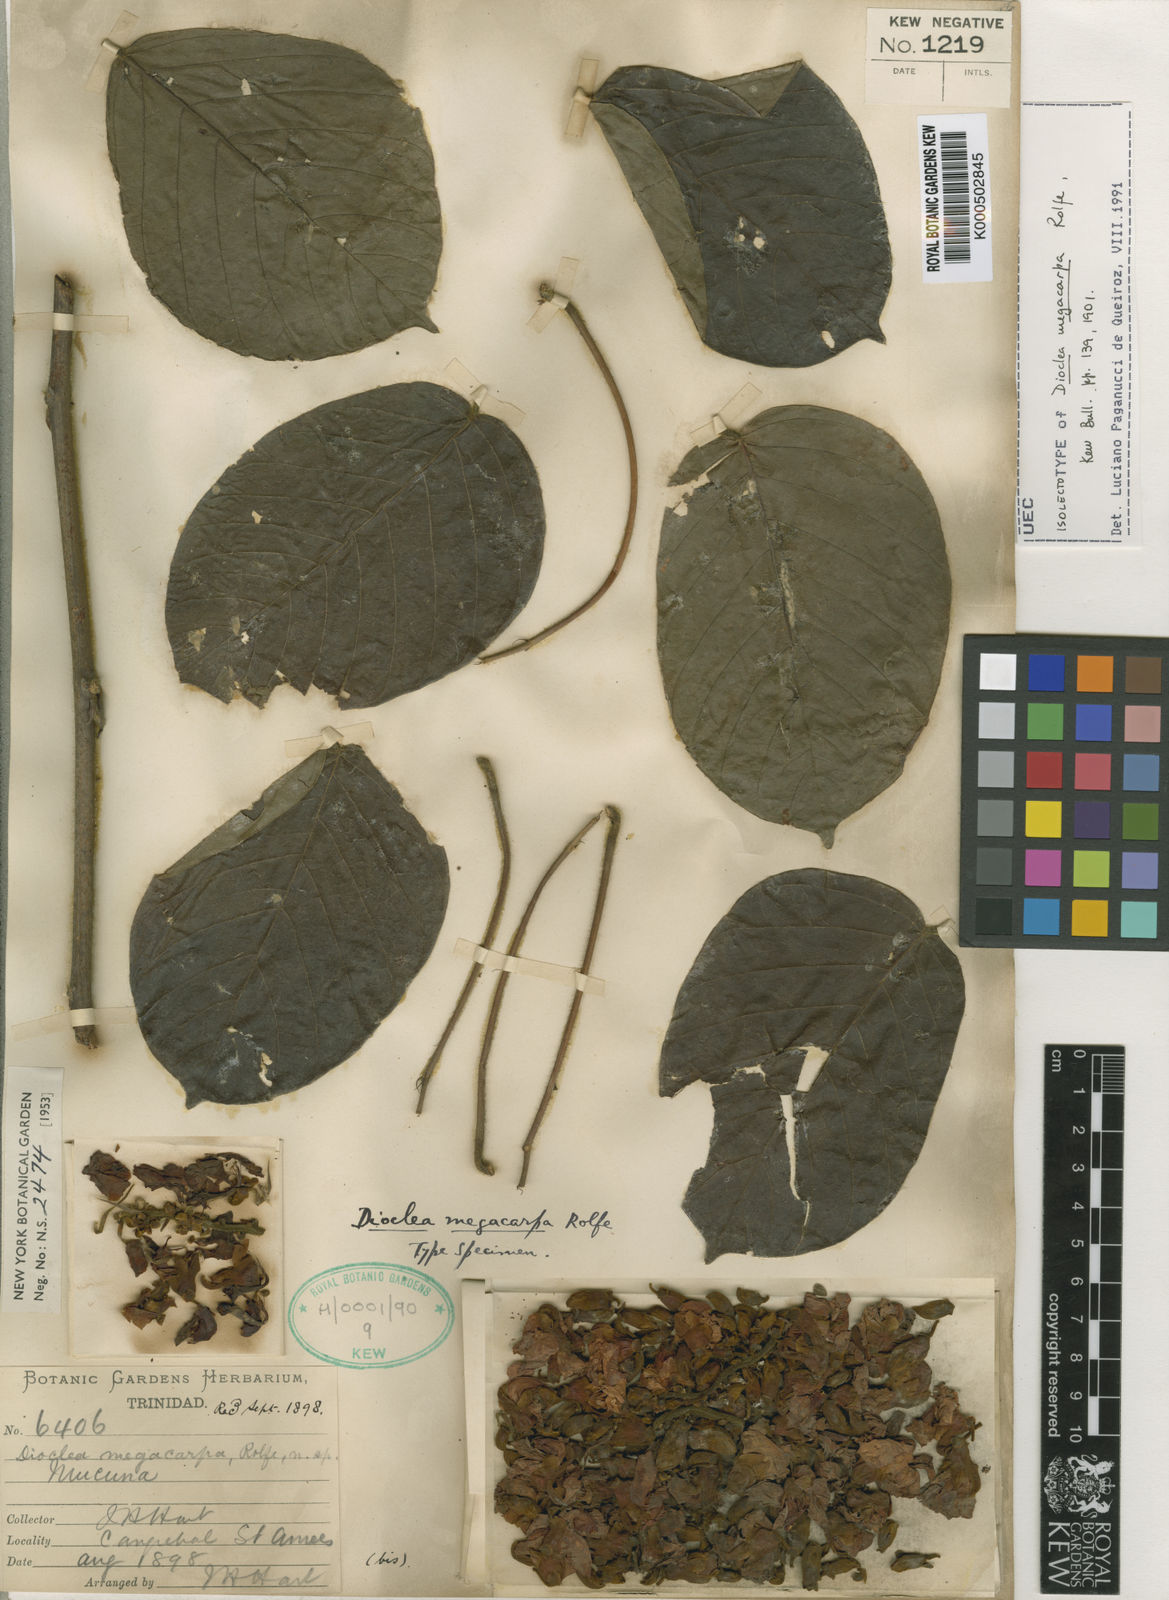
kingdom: Plantae
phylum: Tracheophyta
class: Magnoliopsida
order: Fabales
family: Fabaceae
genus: Macropsychanthus
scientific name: Macropsychanthus megacarpus
